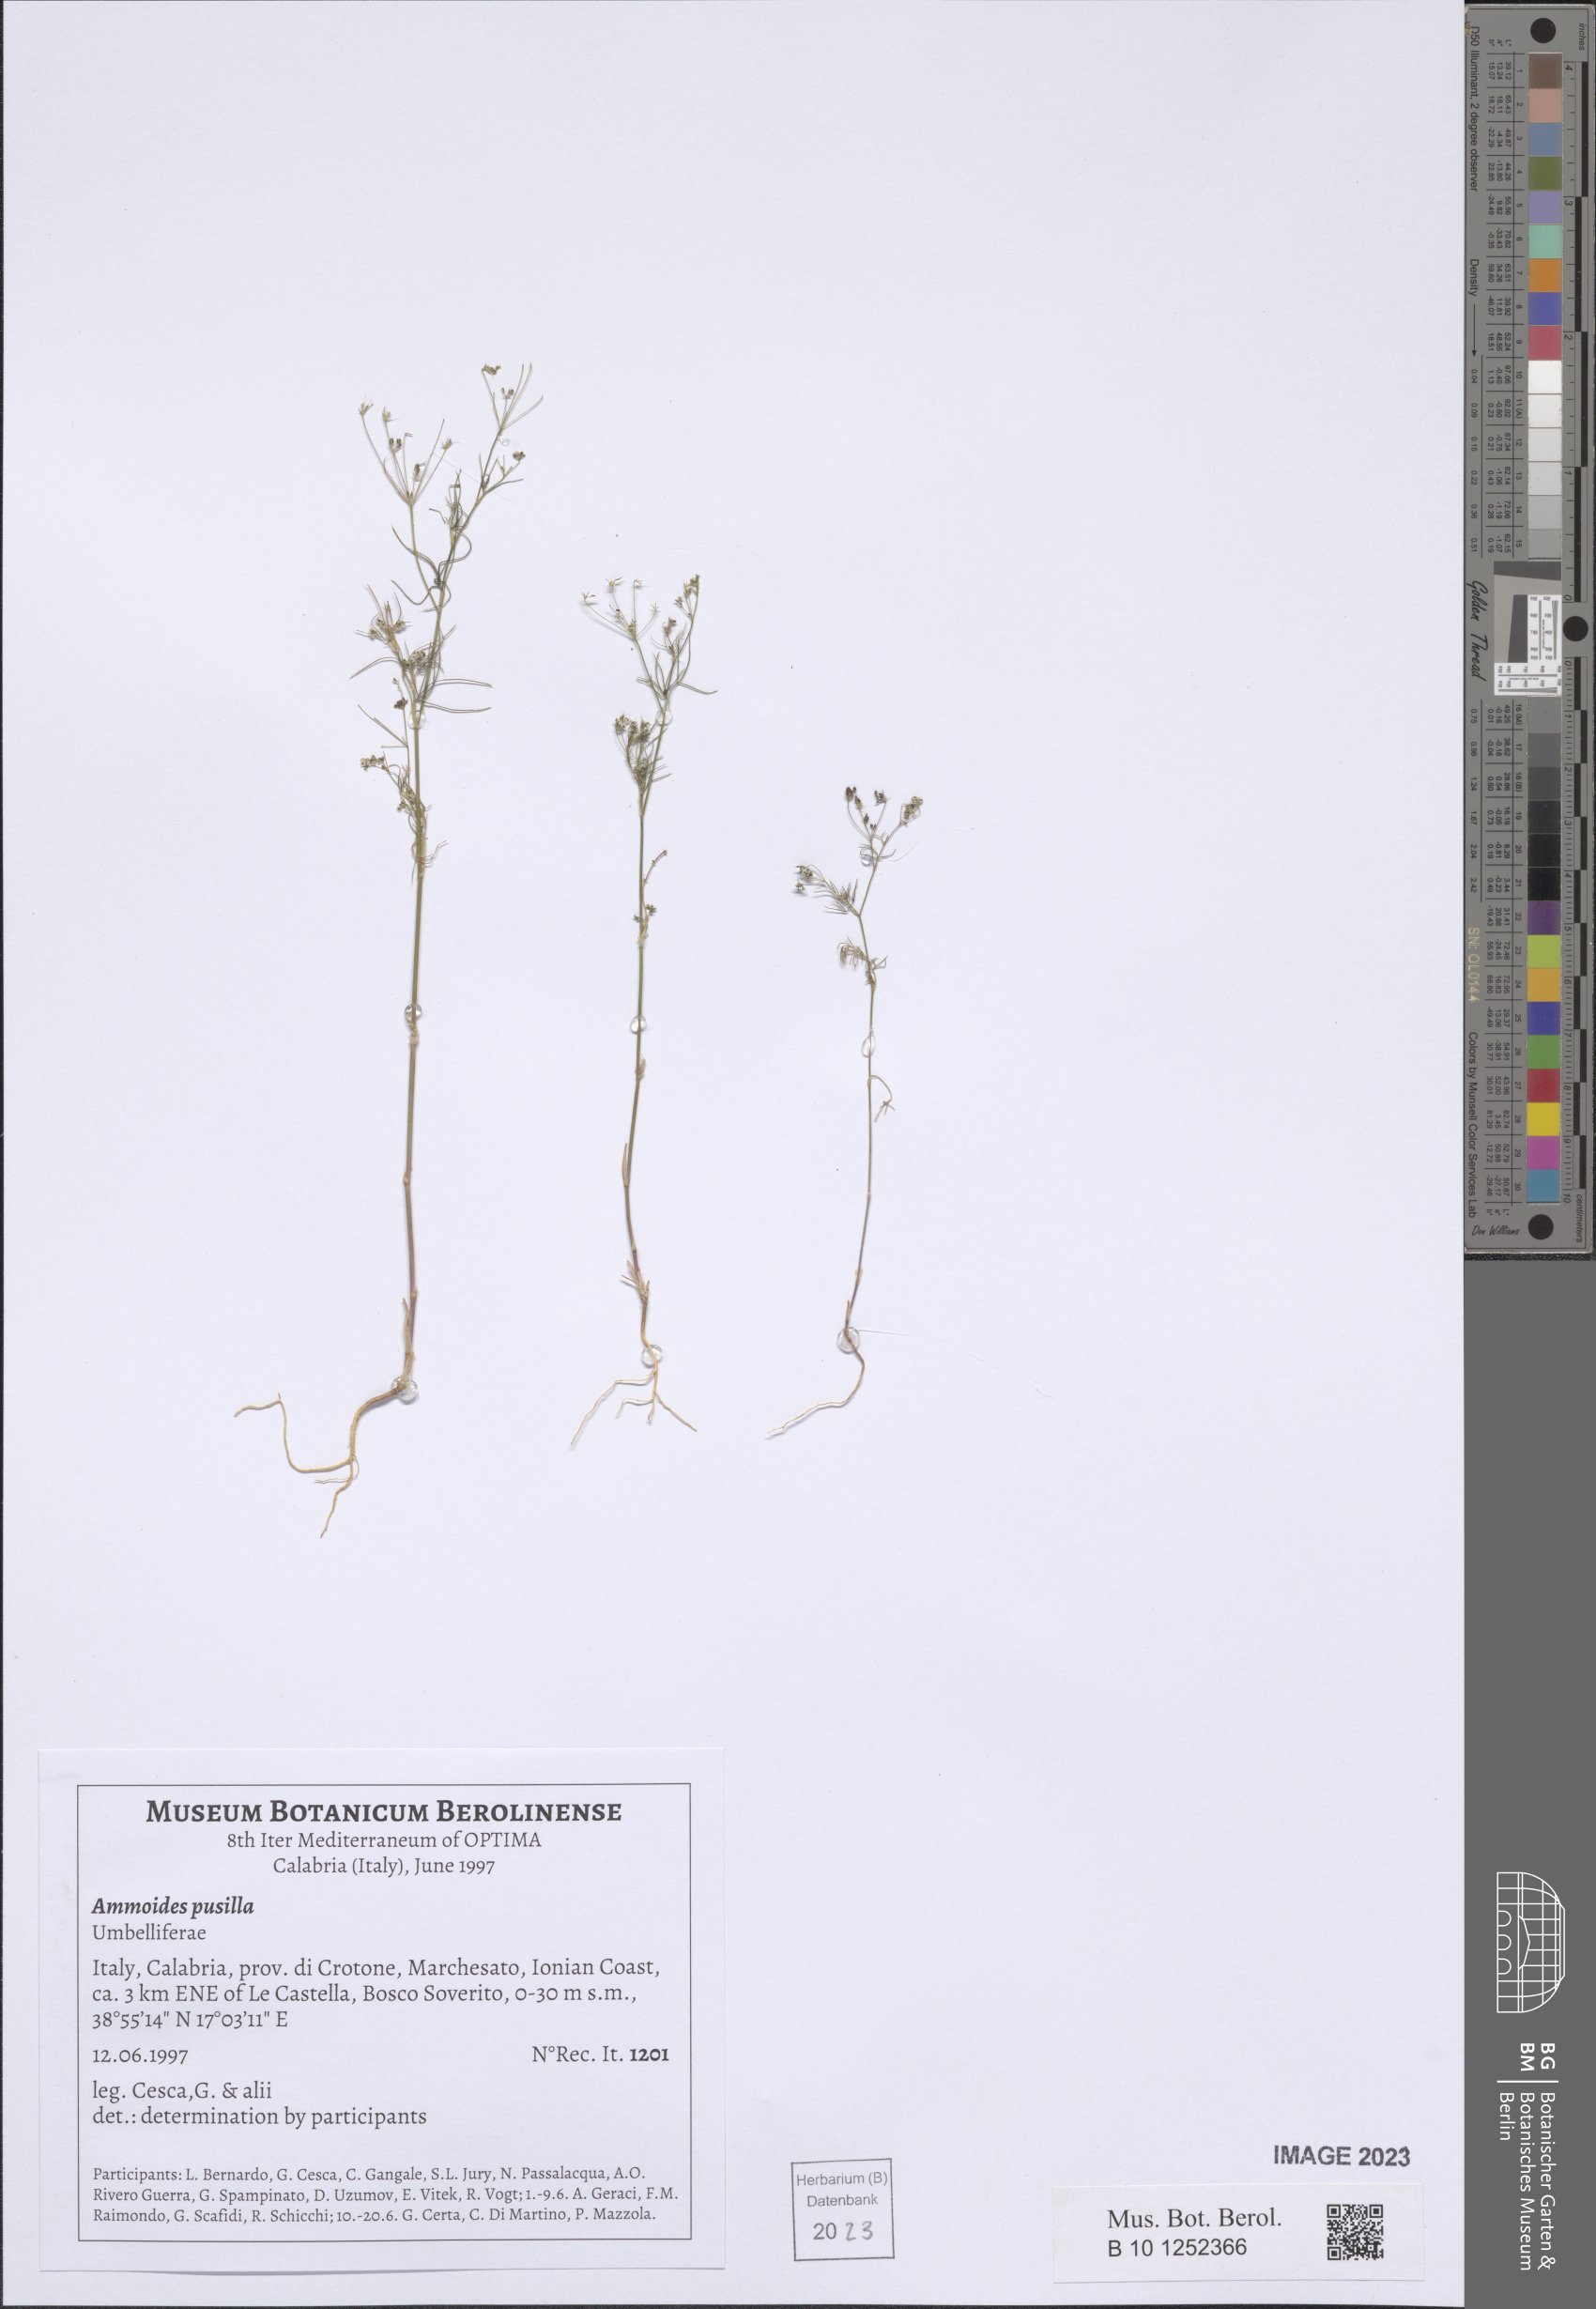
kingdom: Plantae
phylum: Tracheophyta
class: Magnoliopsida
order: Apiales
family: Apiaceae
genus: Ammoides
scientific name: Ammoides pusilla
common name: Cerfolium
